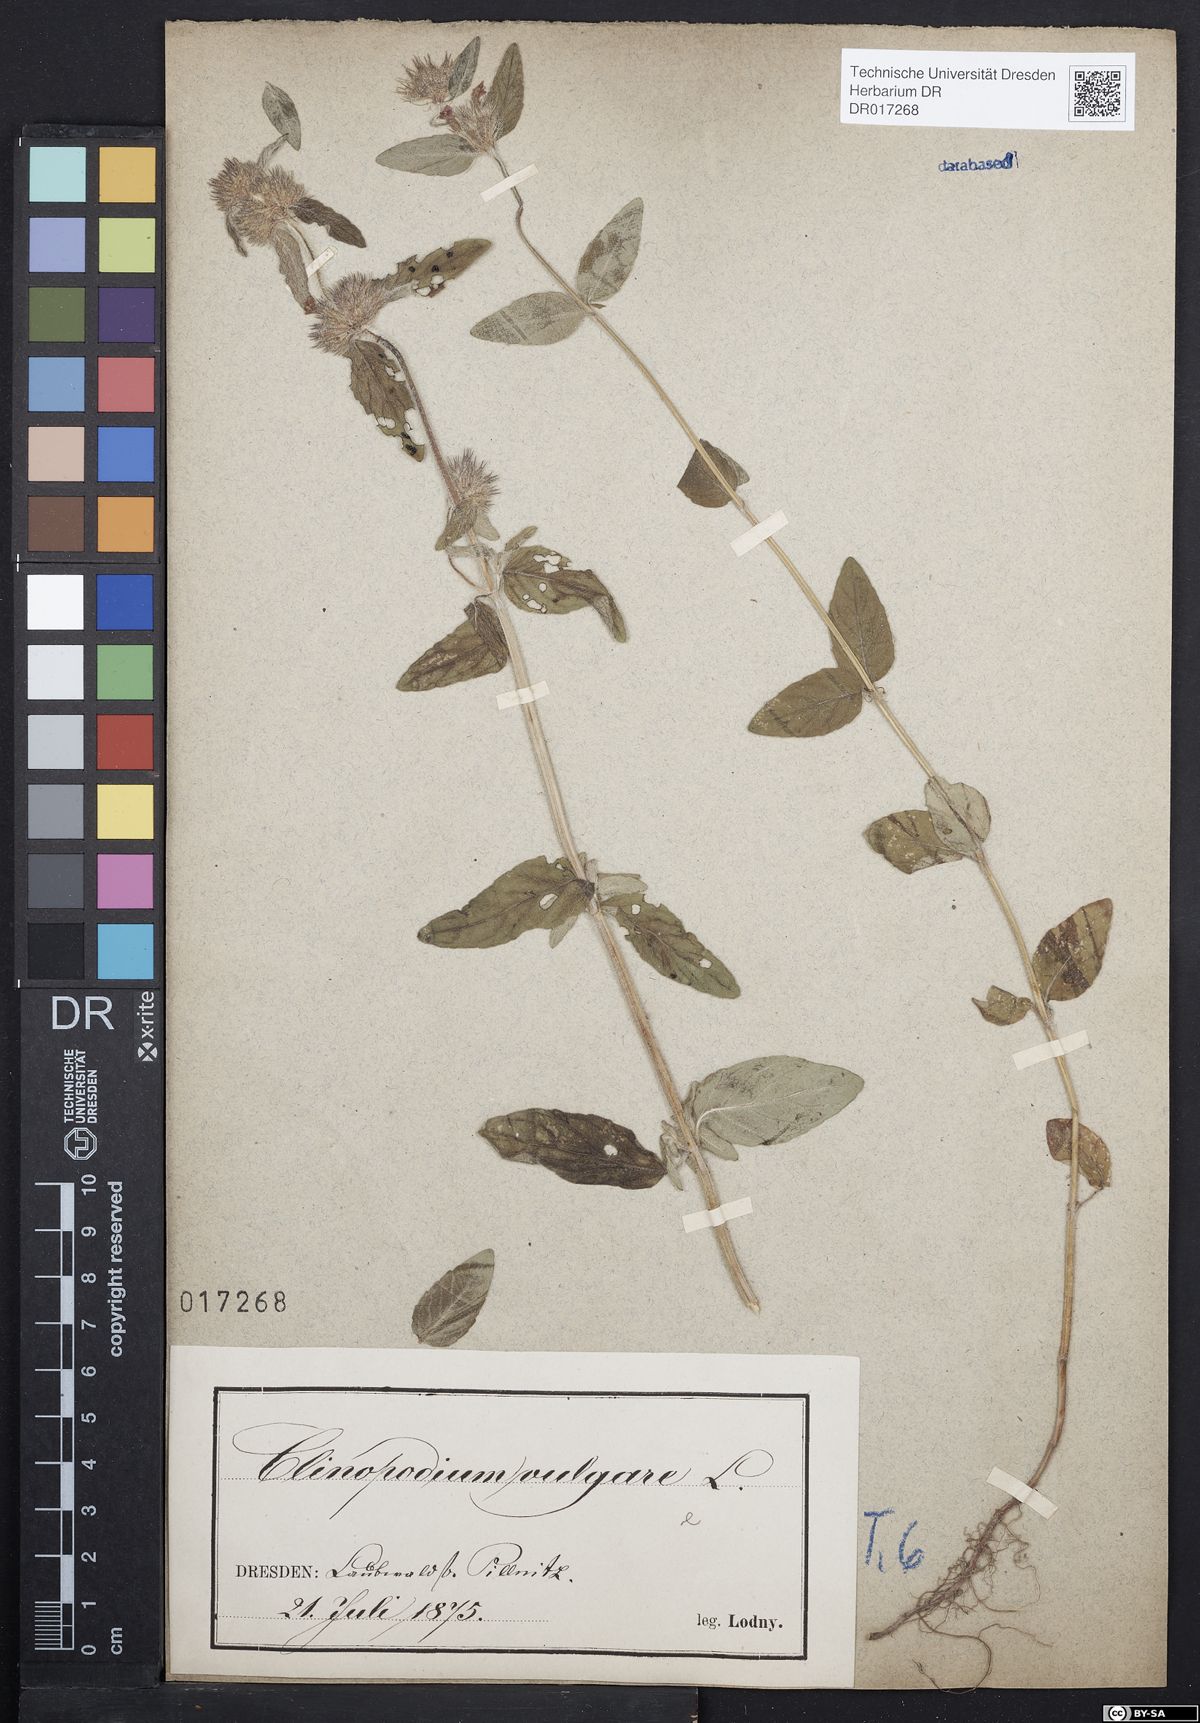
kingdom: Plantae
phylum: Tracheophyta
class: Magnoliopsida
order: Lamiales
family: Lamiaceae
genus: Clinopodium
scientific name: Clinopodium vulgare
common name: Wild basil
